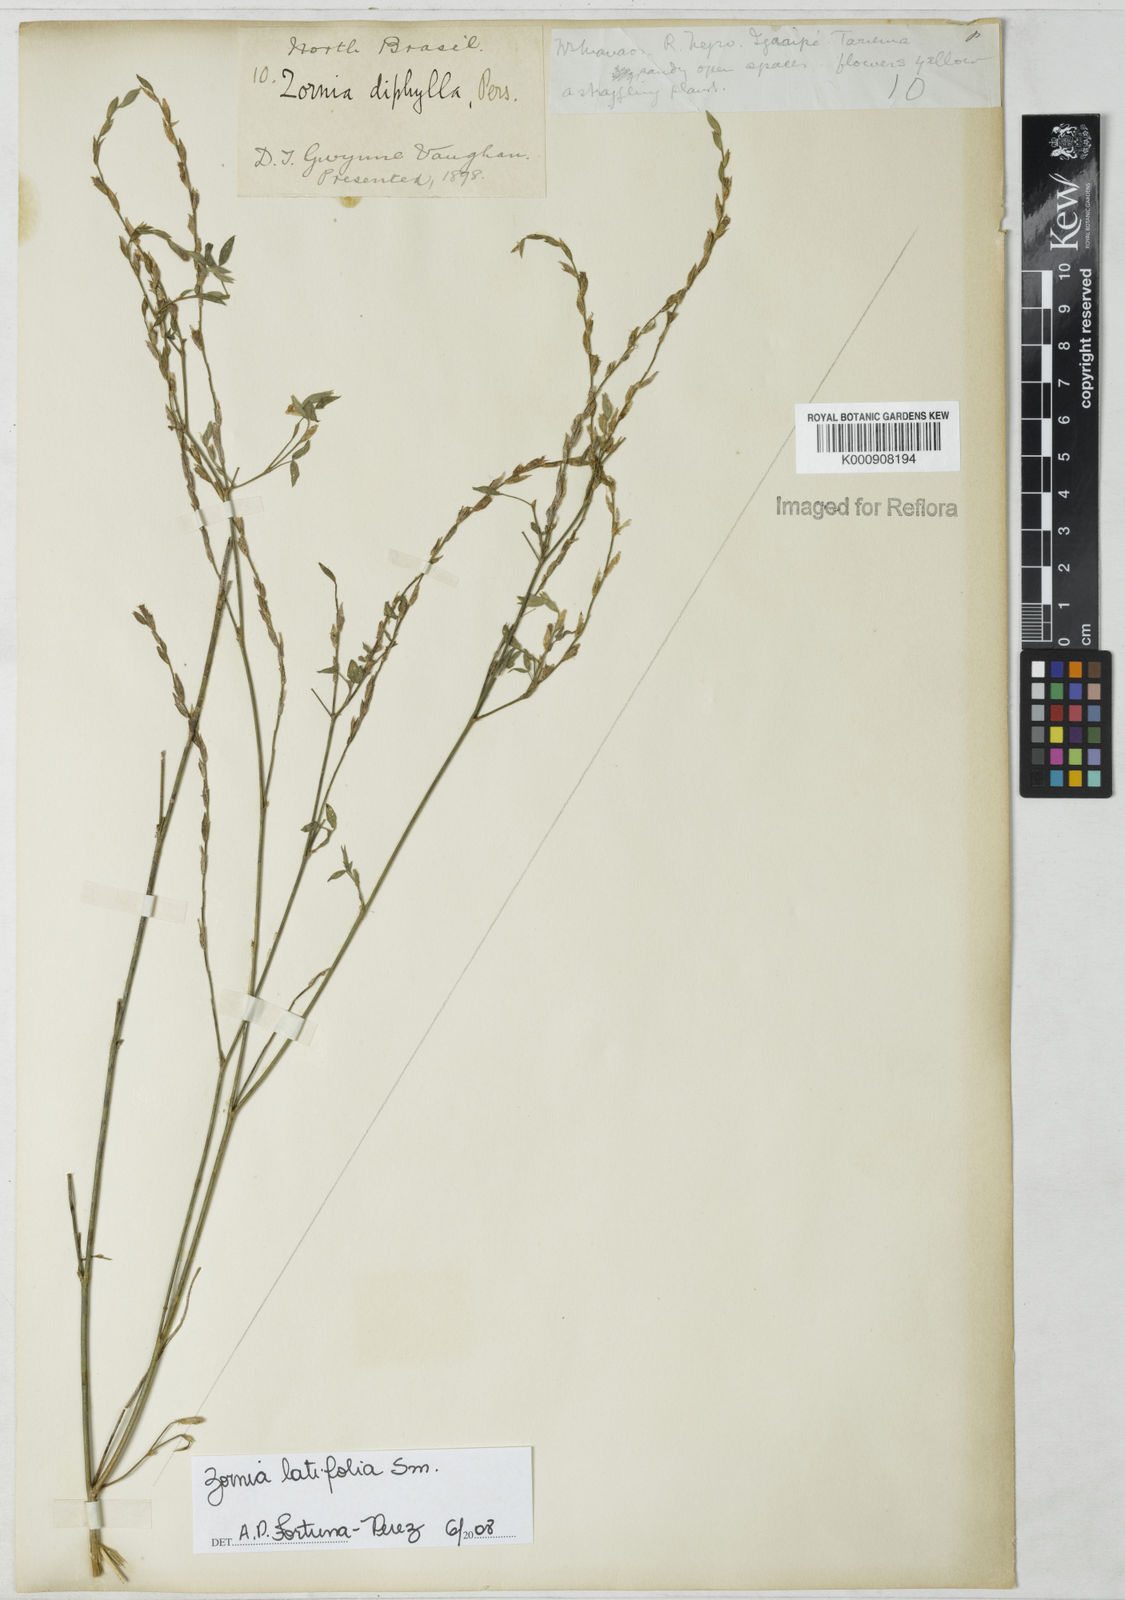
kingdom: Plantae
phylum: Tracheophyta
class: Magnoliopsida
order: Fabales
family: Fabaceae
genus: Zornia
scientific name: Zornia latifolia
